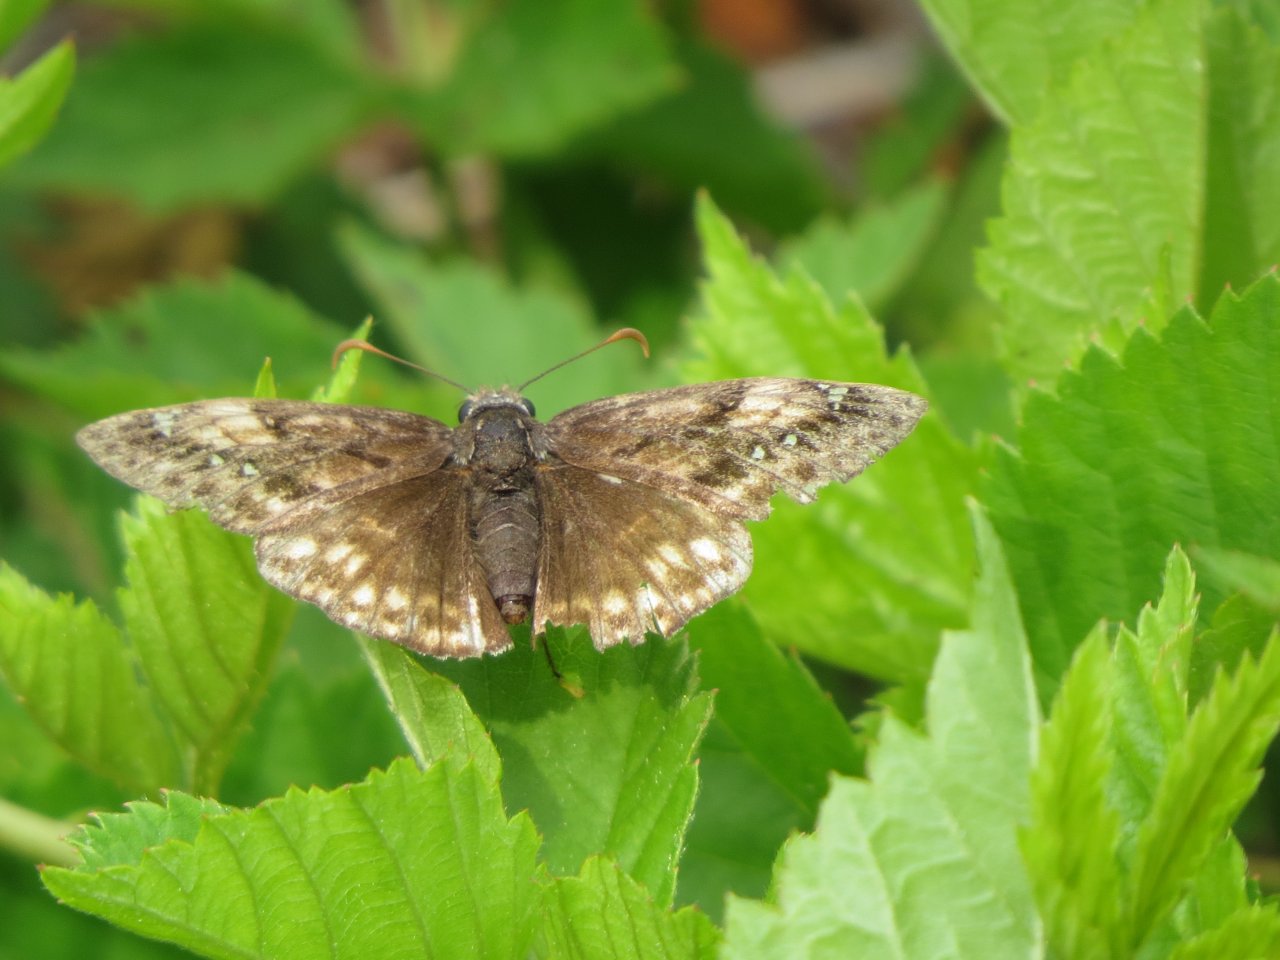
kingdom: Animalia
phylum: Arthropoda
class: Insecta
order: Lepidoptera
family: Hesperiidae
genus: Gesta
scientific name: Gesta
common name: Juvenal's Duskywing
